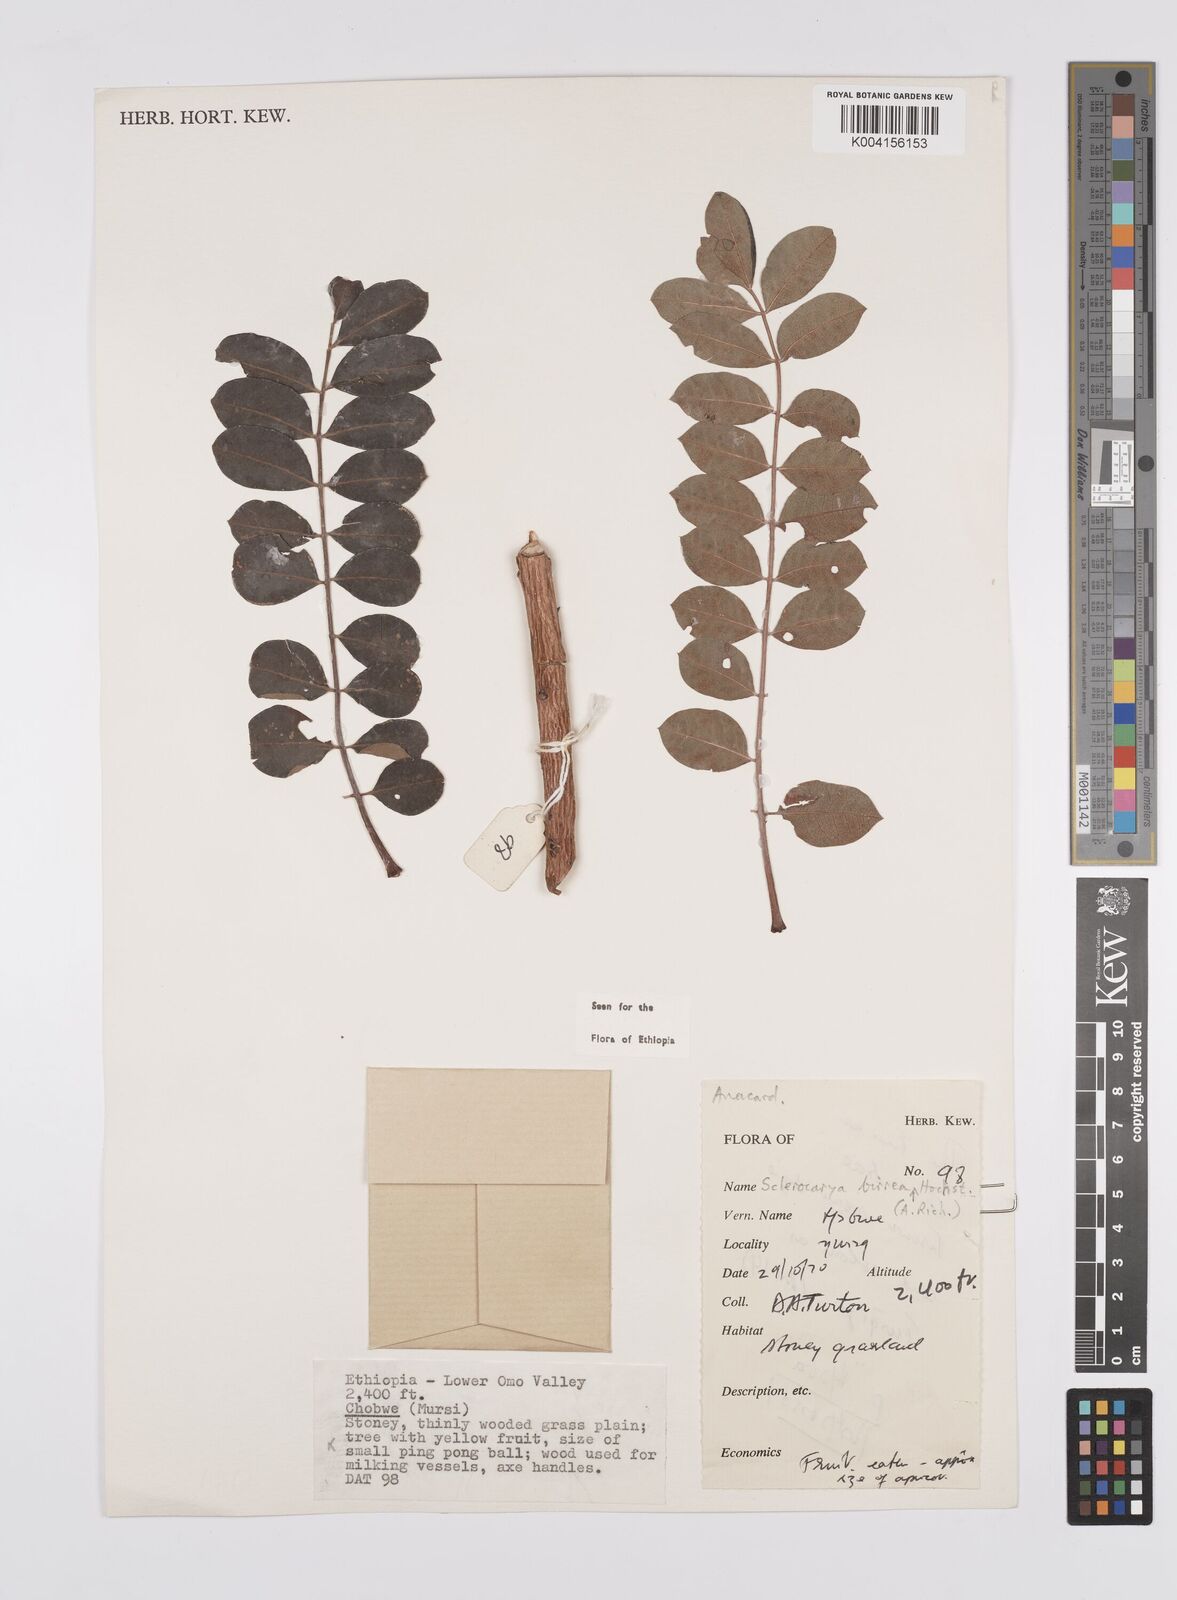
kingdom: Plantae
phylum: Tracheophyta
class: Magnoliopsida
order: Sapindales
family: Anacardiaceae
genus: Sclerocarya
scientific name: Sclerocarya birrea
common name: Marula
